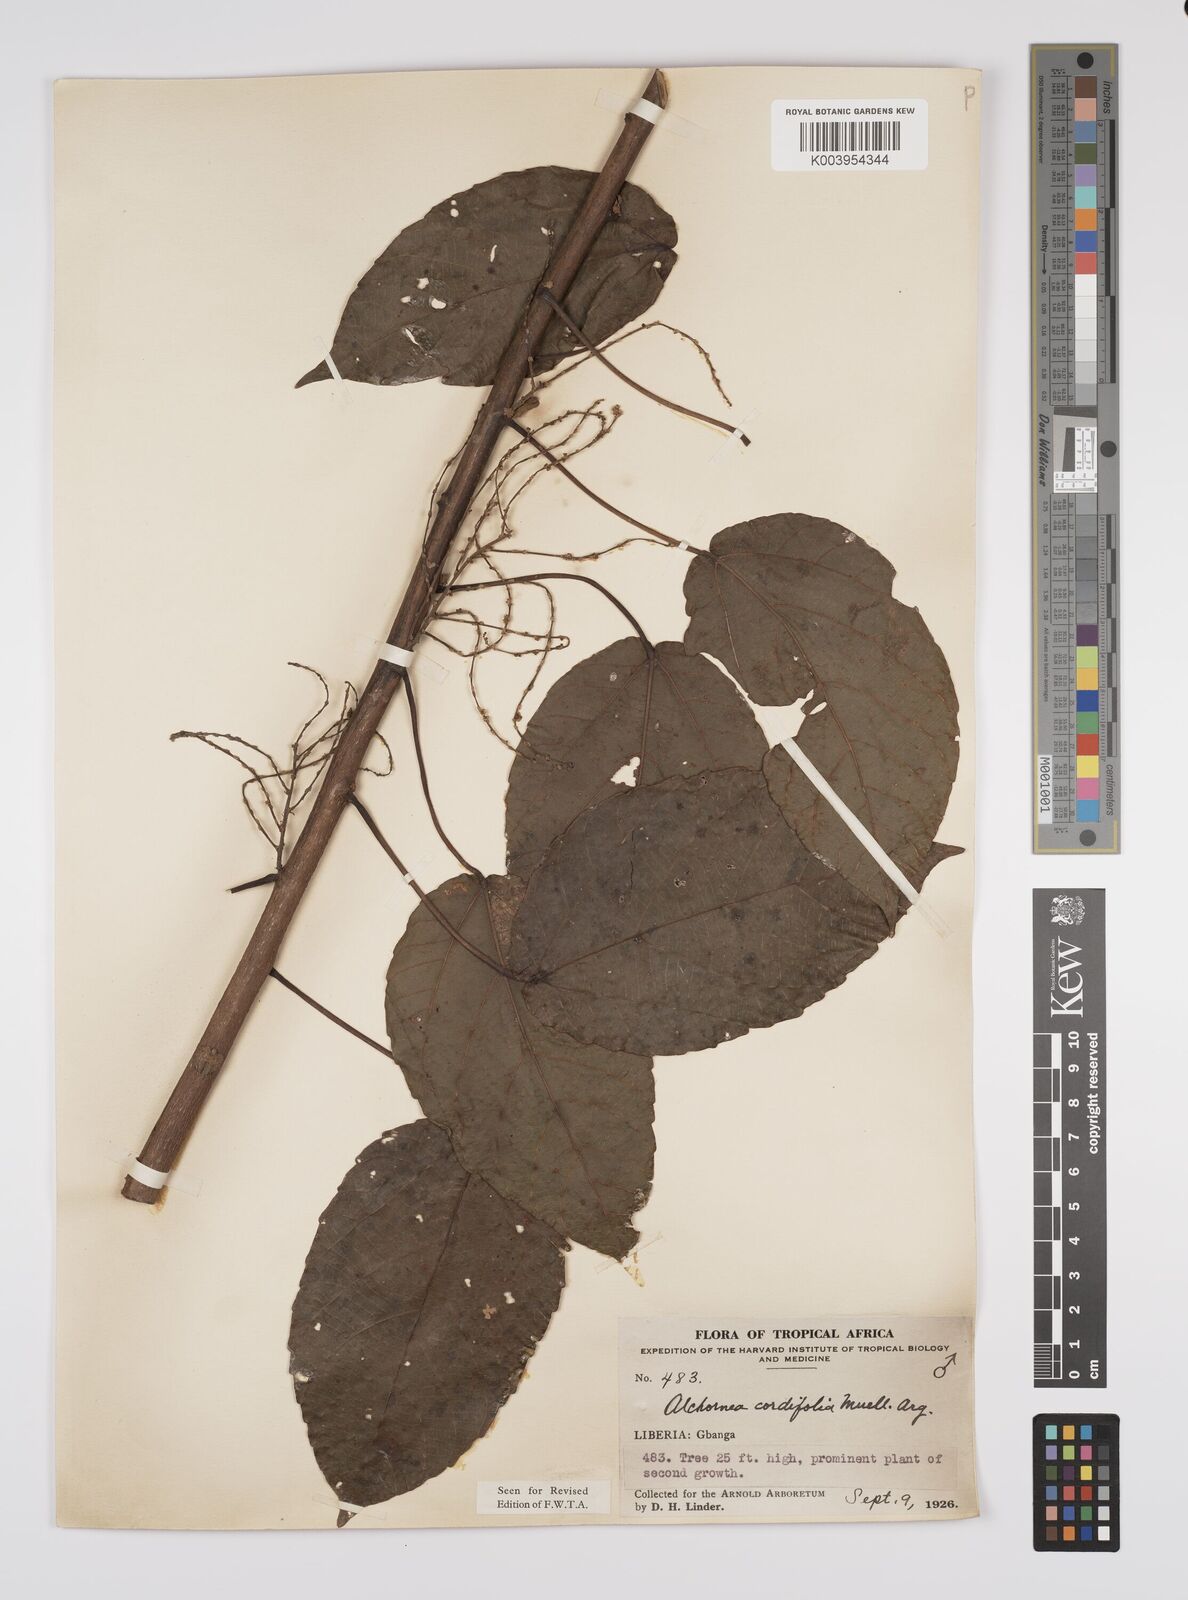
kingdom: Plantae
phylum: Tracheophyta
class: Magnoliopsida
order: Malpighiales
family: Euphorbiaceae
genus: Alchornea
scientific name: Alchornea cordifolia
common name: Christmasbush
